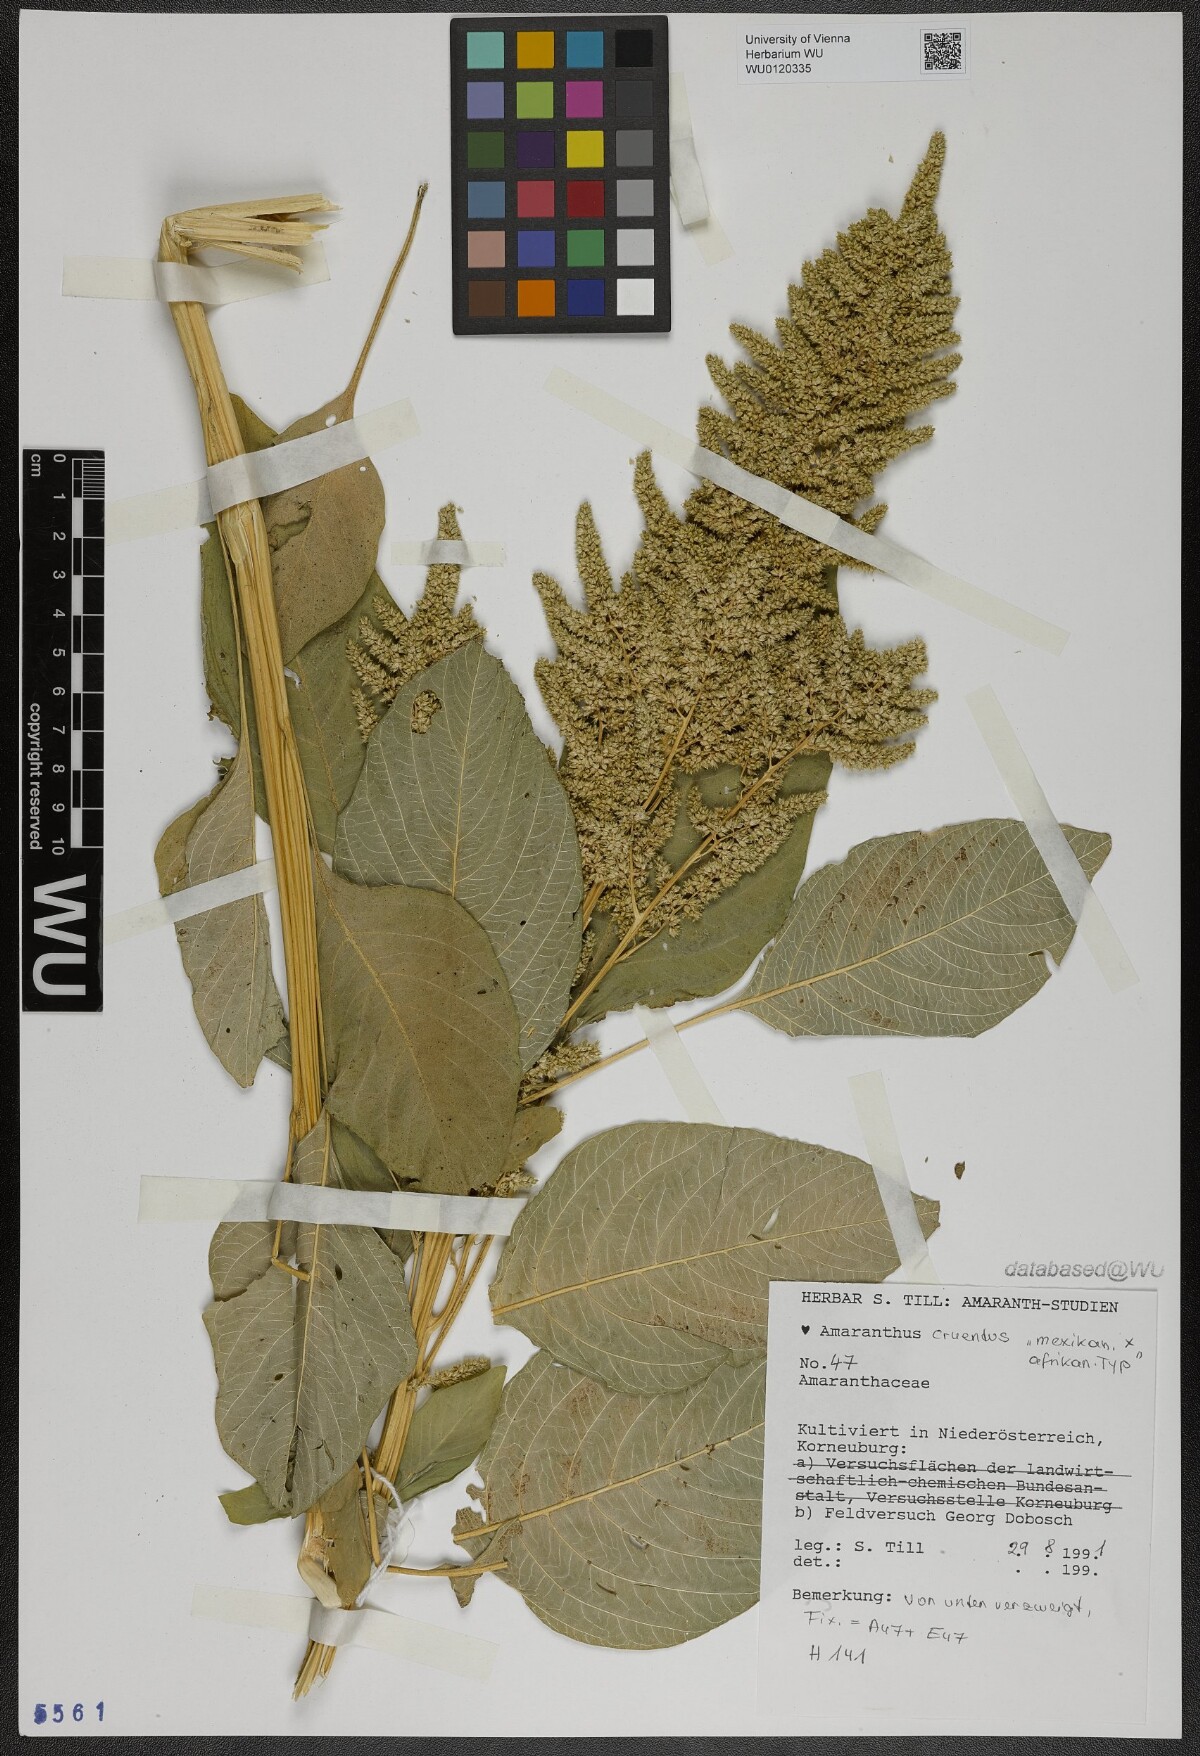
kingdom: Plantae
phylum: Tracheophyta
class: Magnoliopsida
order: Caryophyllales
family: Amaranthaceae
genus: Amaranthus
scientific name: Amaranthus cruentus
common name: Purple amaranth
